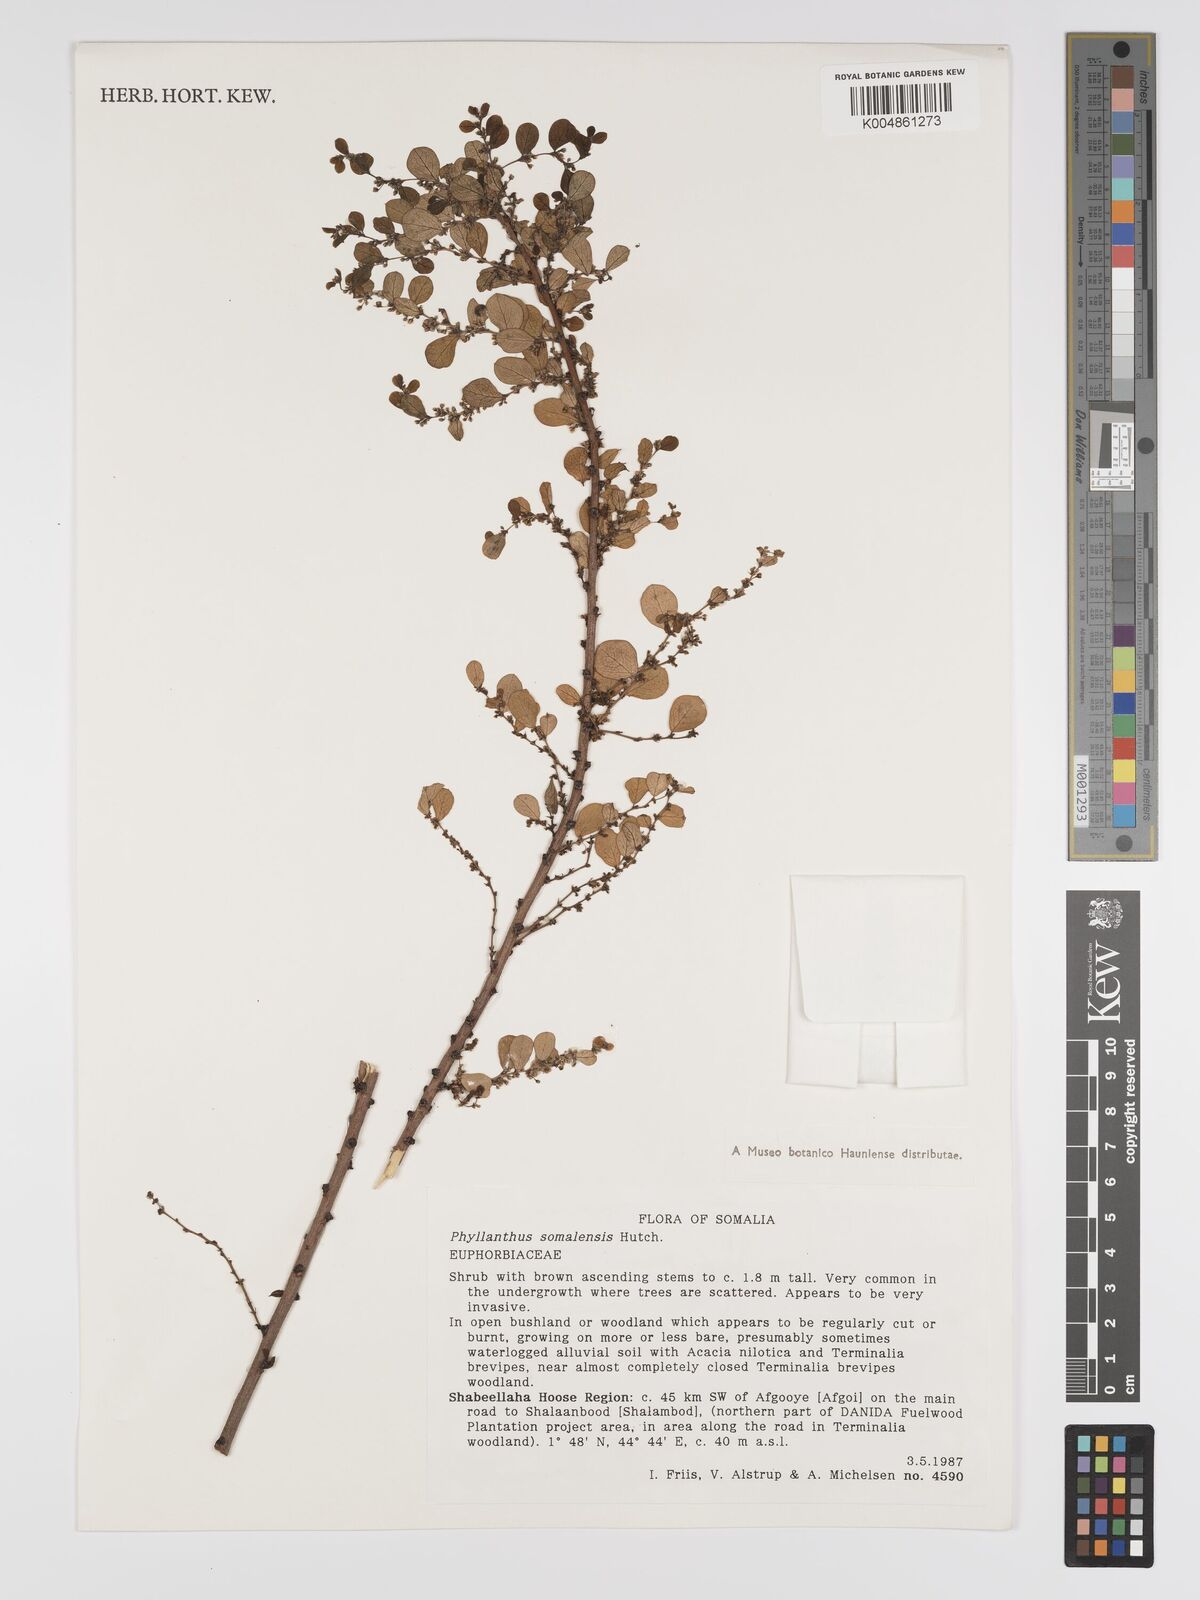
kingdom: Plantae
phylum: Tracheophyta
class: Magnoliopsida
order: Malpighiales
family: Phyllanthaceae
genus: Phyllanthus
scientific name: Phyllanthus somalensis
